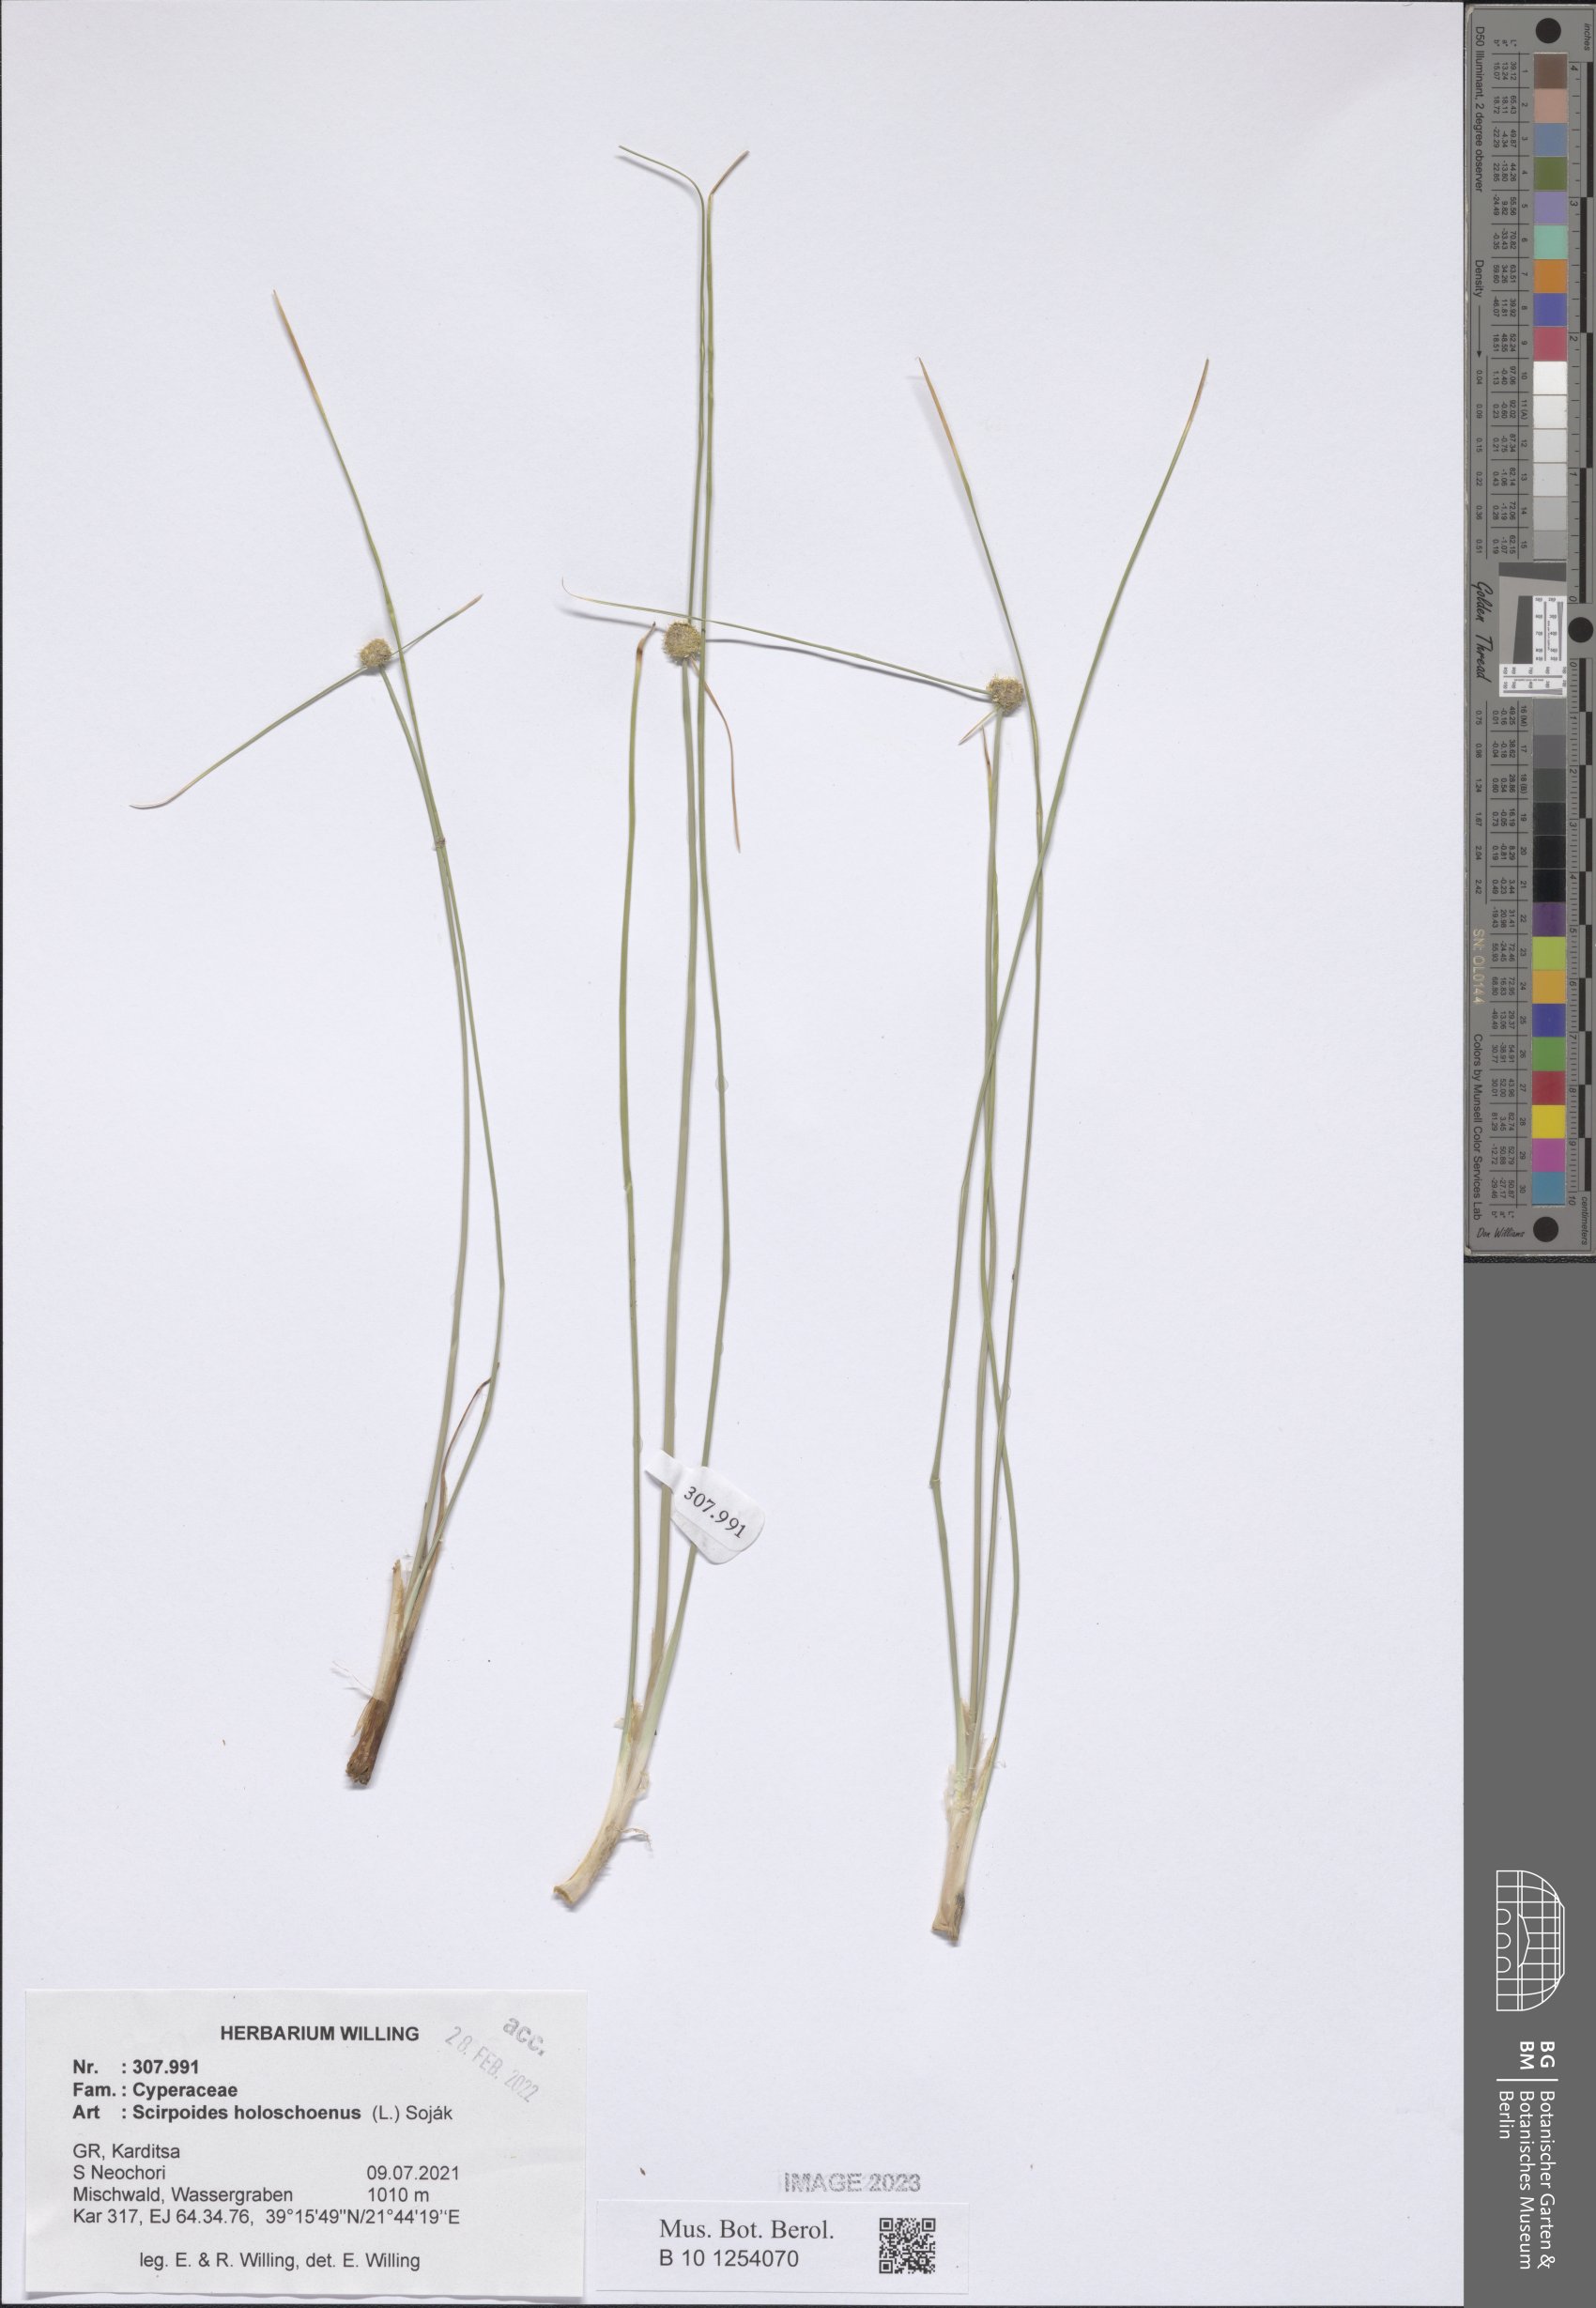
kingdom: Plantae
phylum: Tracheophyta
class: Liliopsida
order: Poales
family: Cyperaceae
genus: Scirpoides
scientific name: Scirpoides
